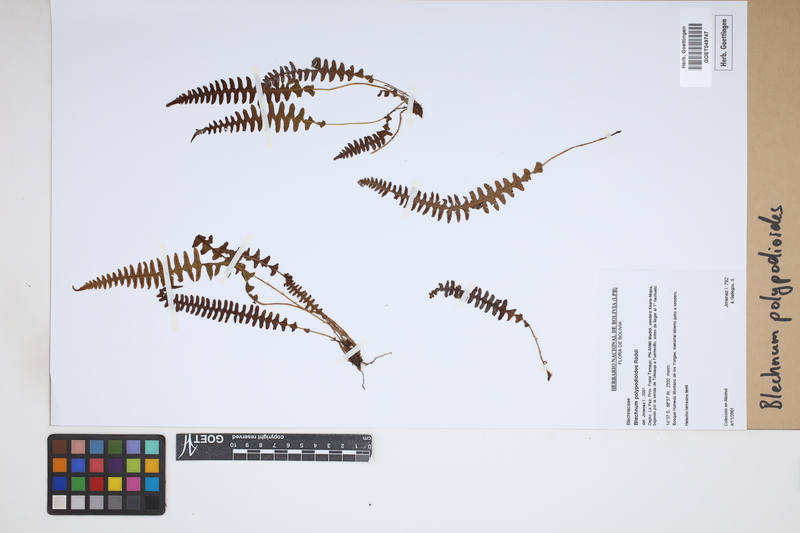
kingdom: Plantae
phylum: Tracheophyta
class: Polypodiopsida
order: Polypodiales
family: Blechnaceae
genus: Blechnum
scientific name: Blechnum polypodioides
